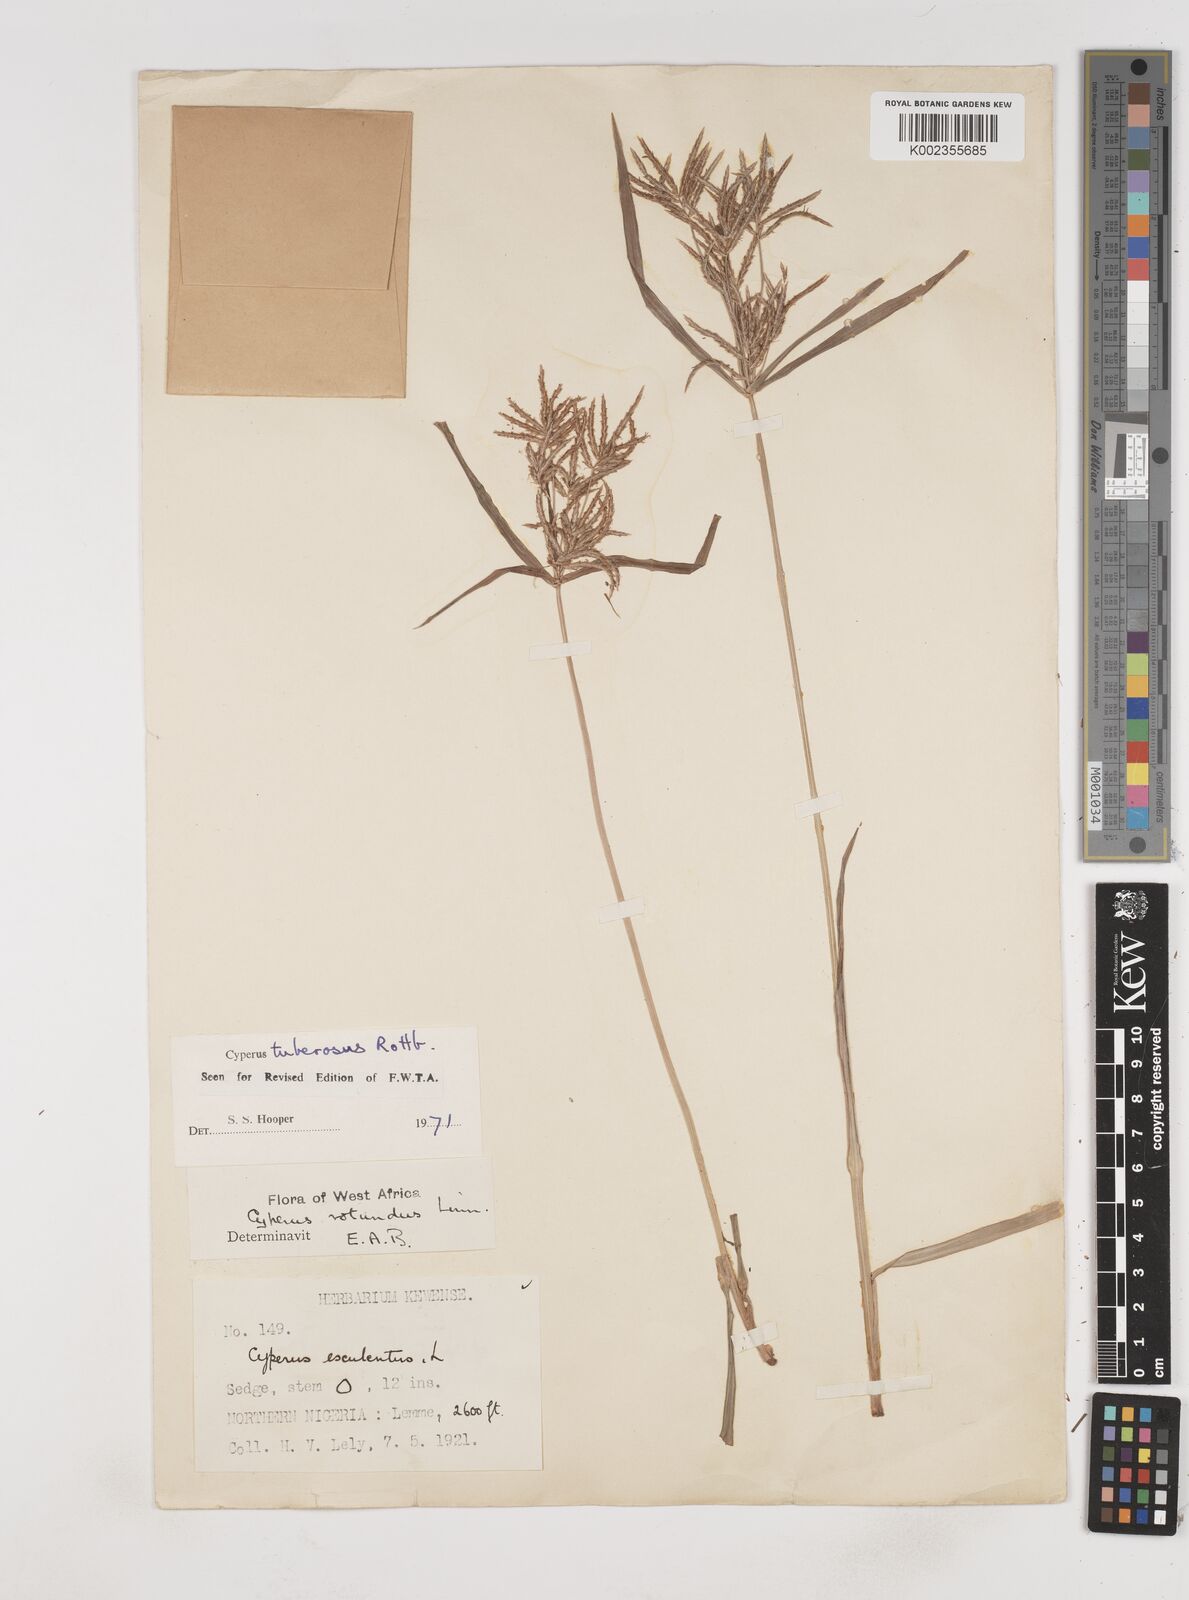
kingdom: Plantae
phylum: Tracheophyta
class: Liliopsida
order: Poales
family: Cyperaceae
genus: Cyperus
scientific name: Cyperus tuberosus
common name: Nut grass
